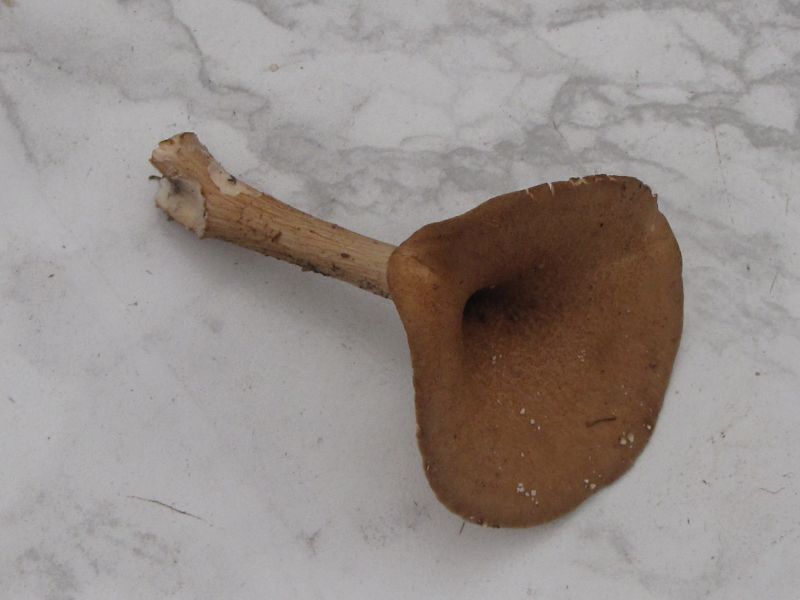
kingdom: Fungi
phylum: Basidiomycota
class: Agaricomycetes
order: Agaricales
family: Tricholomataceae
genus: Infundibulicybe
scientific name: Infundibulicybe squamulosa
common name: småskællet tragthat
